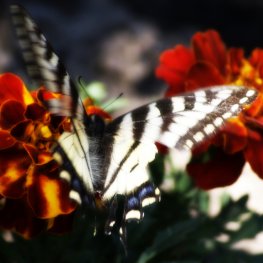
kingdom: Animalia
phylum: Arthropoda
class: Insecta
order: Lepidoptera
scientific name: Lepidoptera
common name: Butterflies
